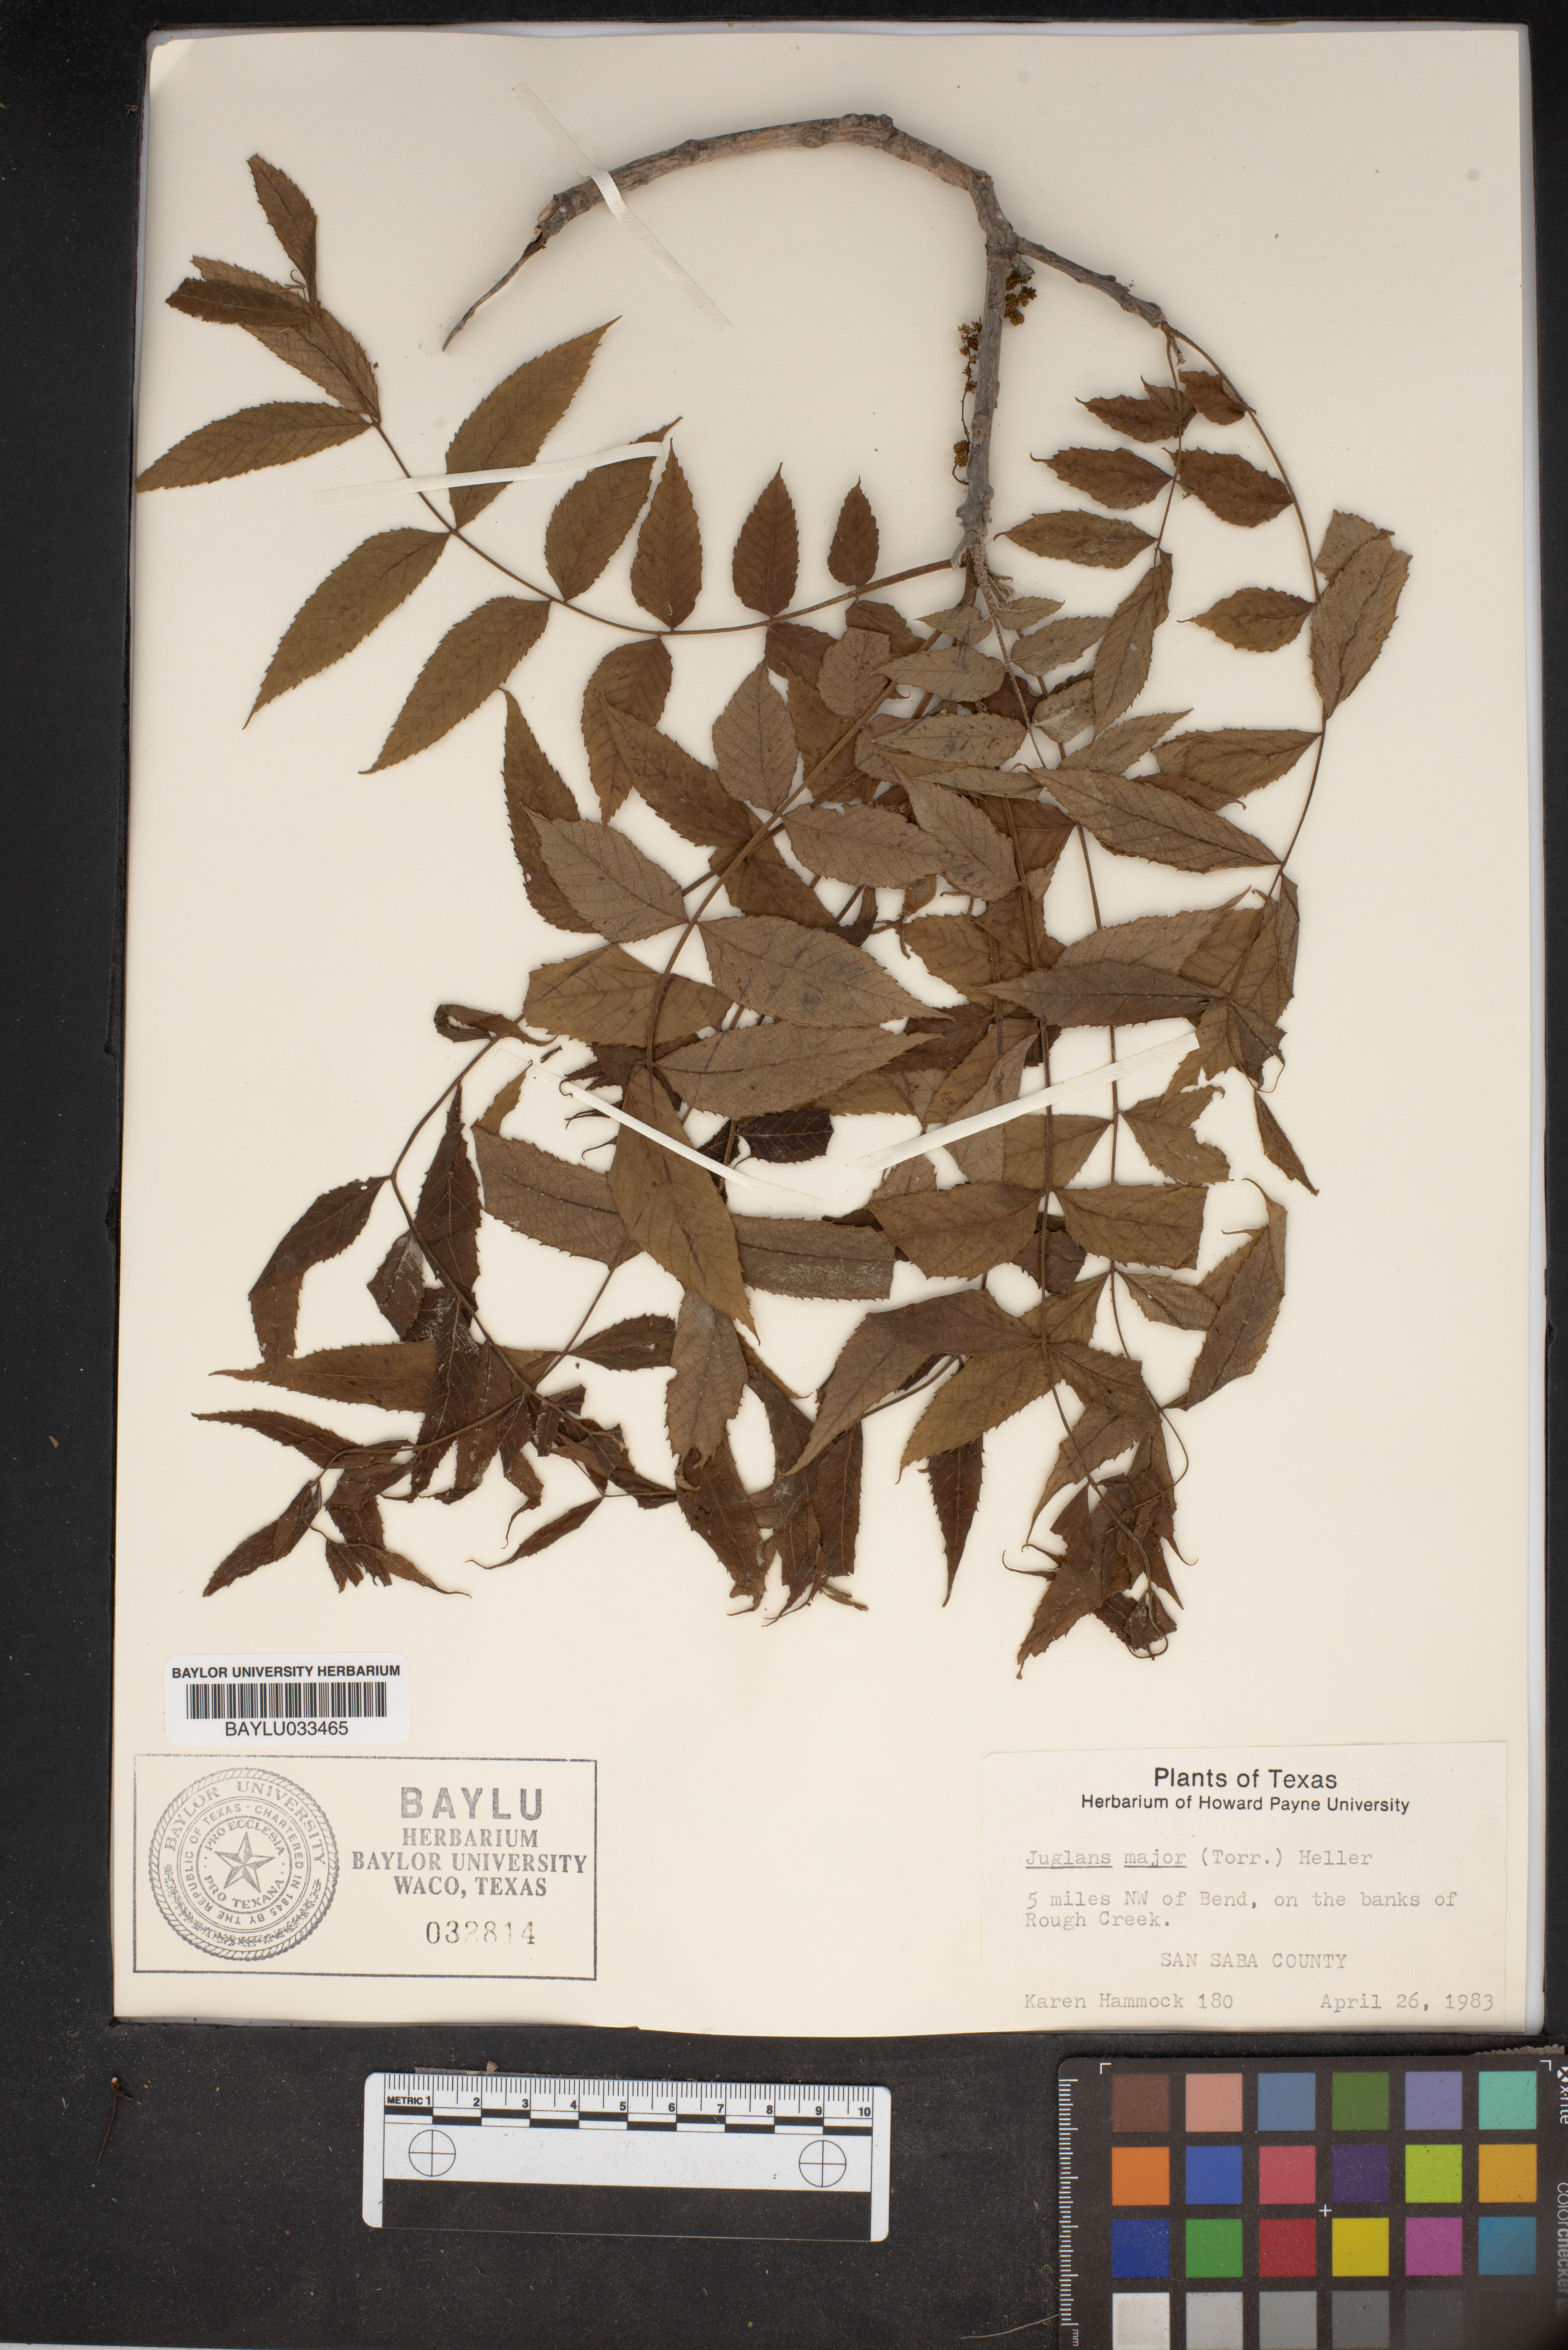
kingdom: Plantae
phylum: Tracheophyta
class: Magnoliopsida
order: Fagales
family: Juglandaceae
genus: Juglans
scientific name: Juglans major
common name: Arizona walnut
